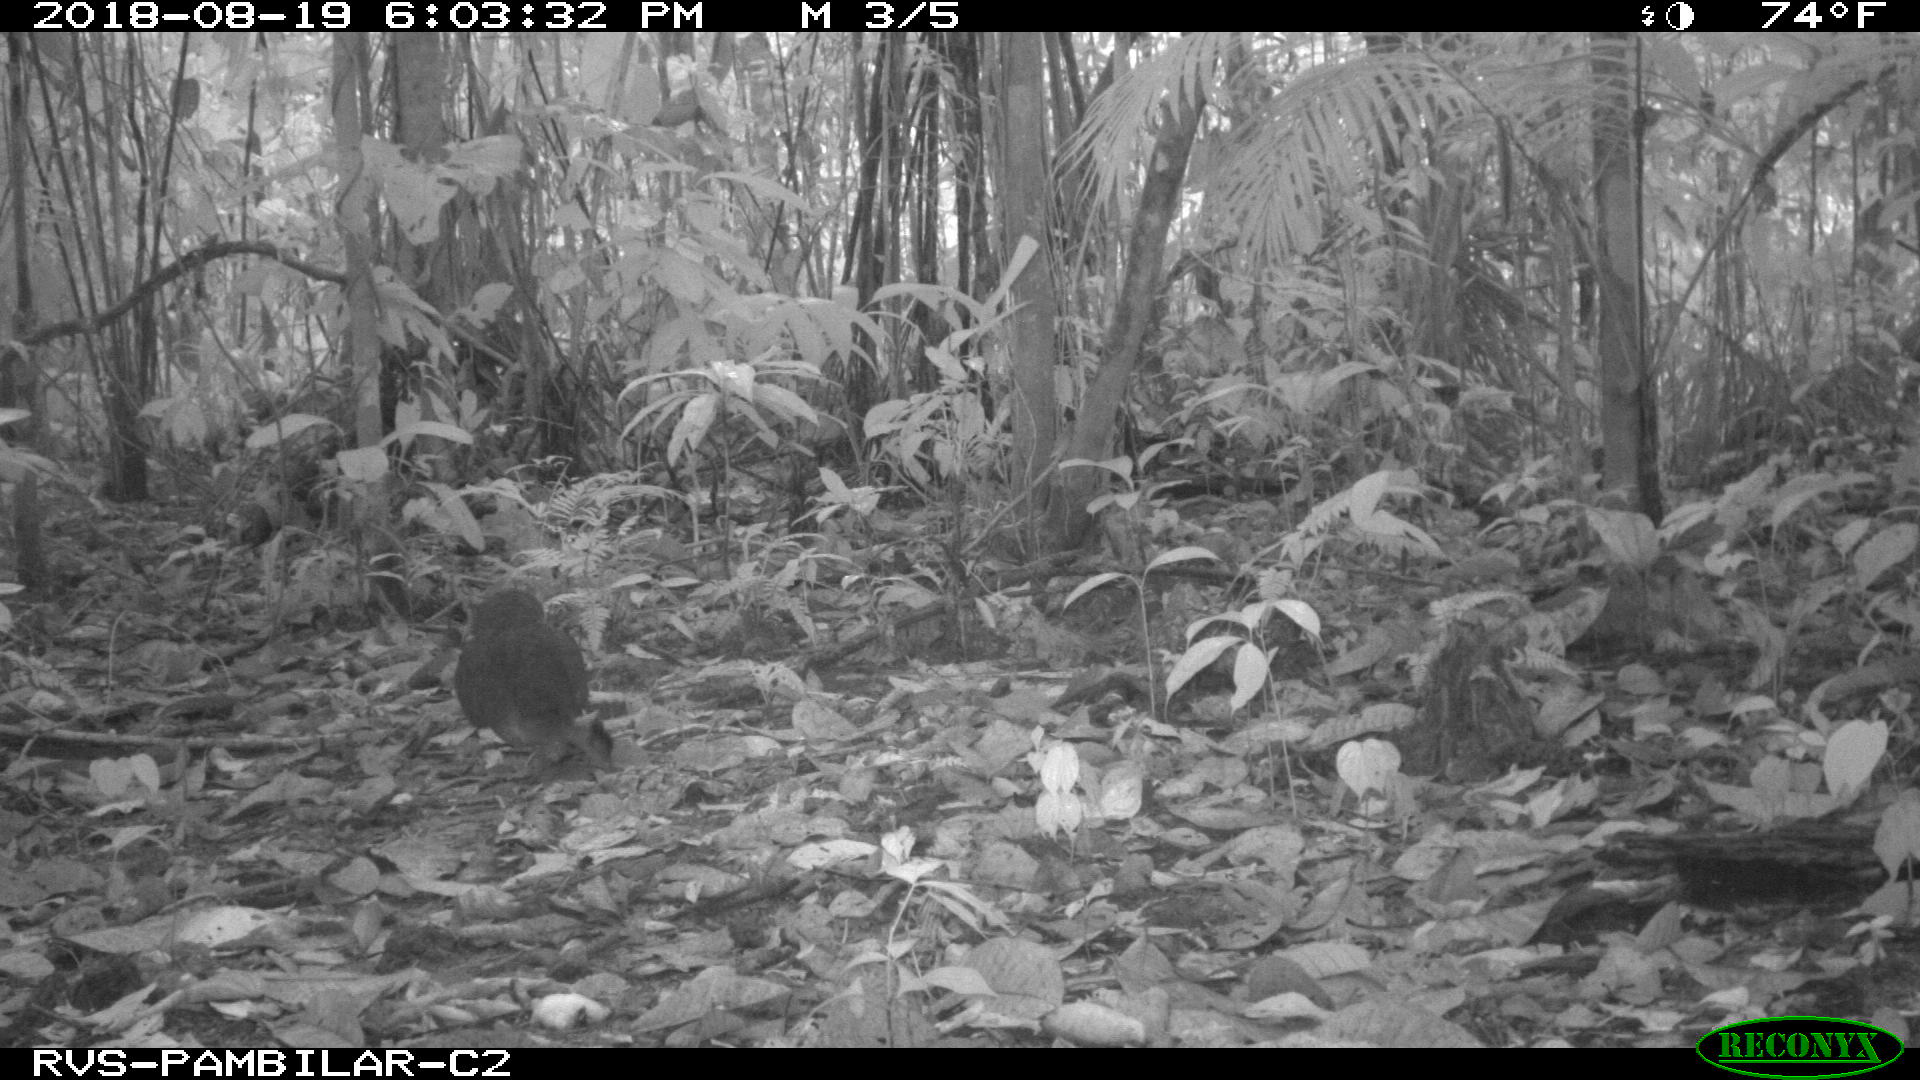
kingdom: Animalia
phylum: Chordata
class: Aves
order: Tinamiformes
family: Tinamidae
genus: Tinamus
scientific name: Tinamus major
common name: Great tinamou
